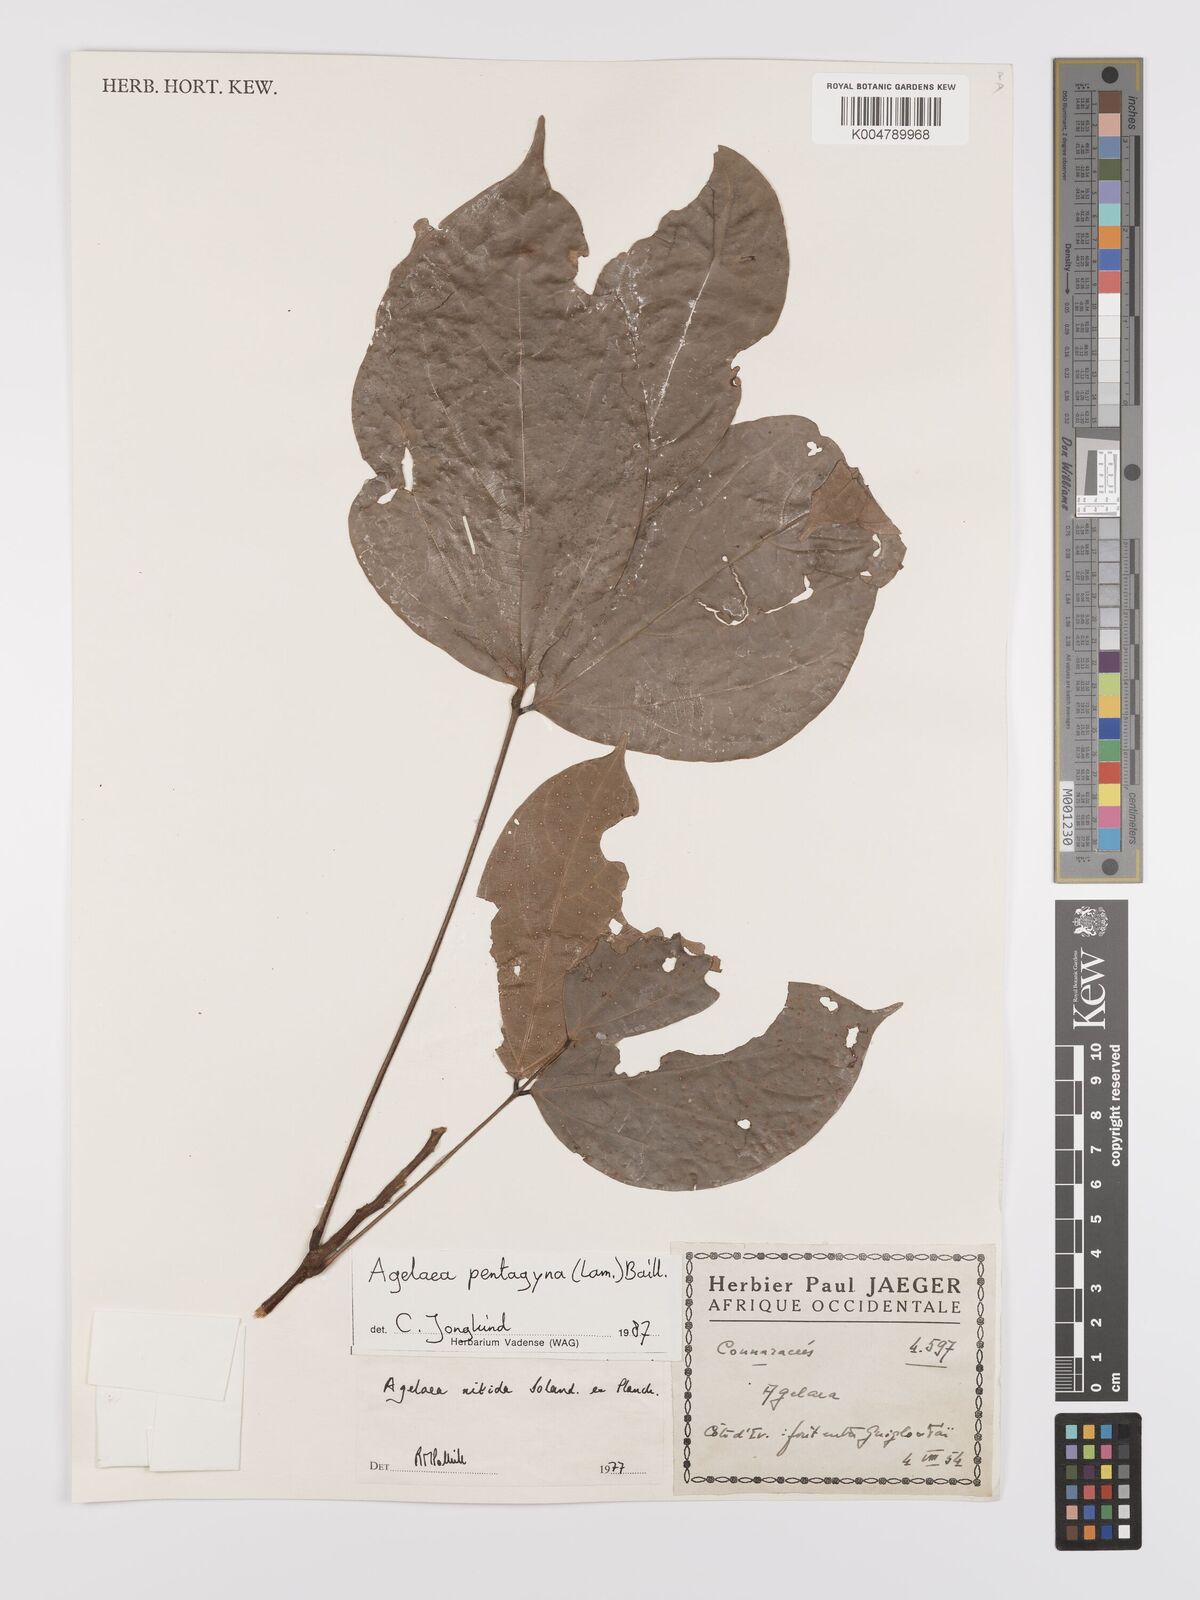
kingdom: Plantae
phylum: Tracheophyta
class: Magnoliopsida
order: Oxalidales
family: Connaraceae
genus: Agelaea
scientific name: Agelaea pentagyna
